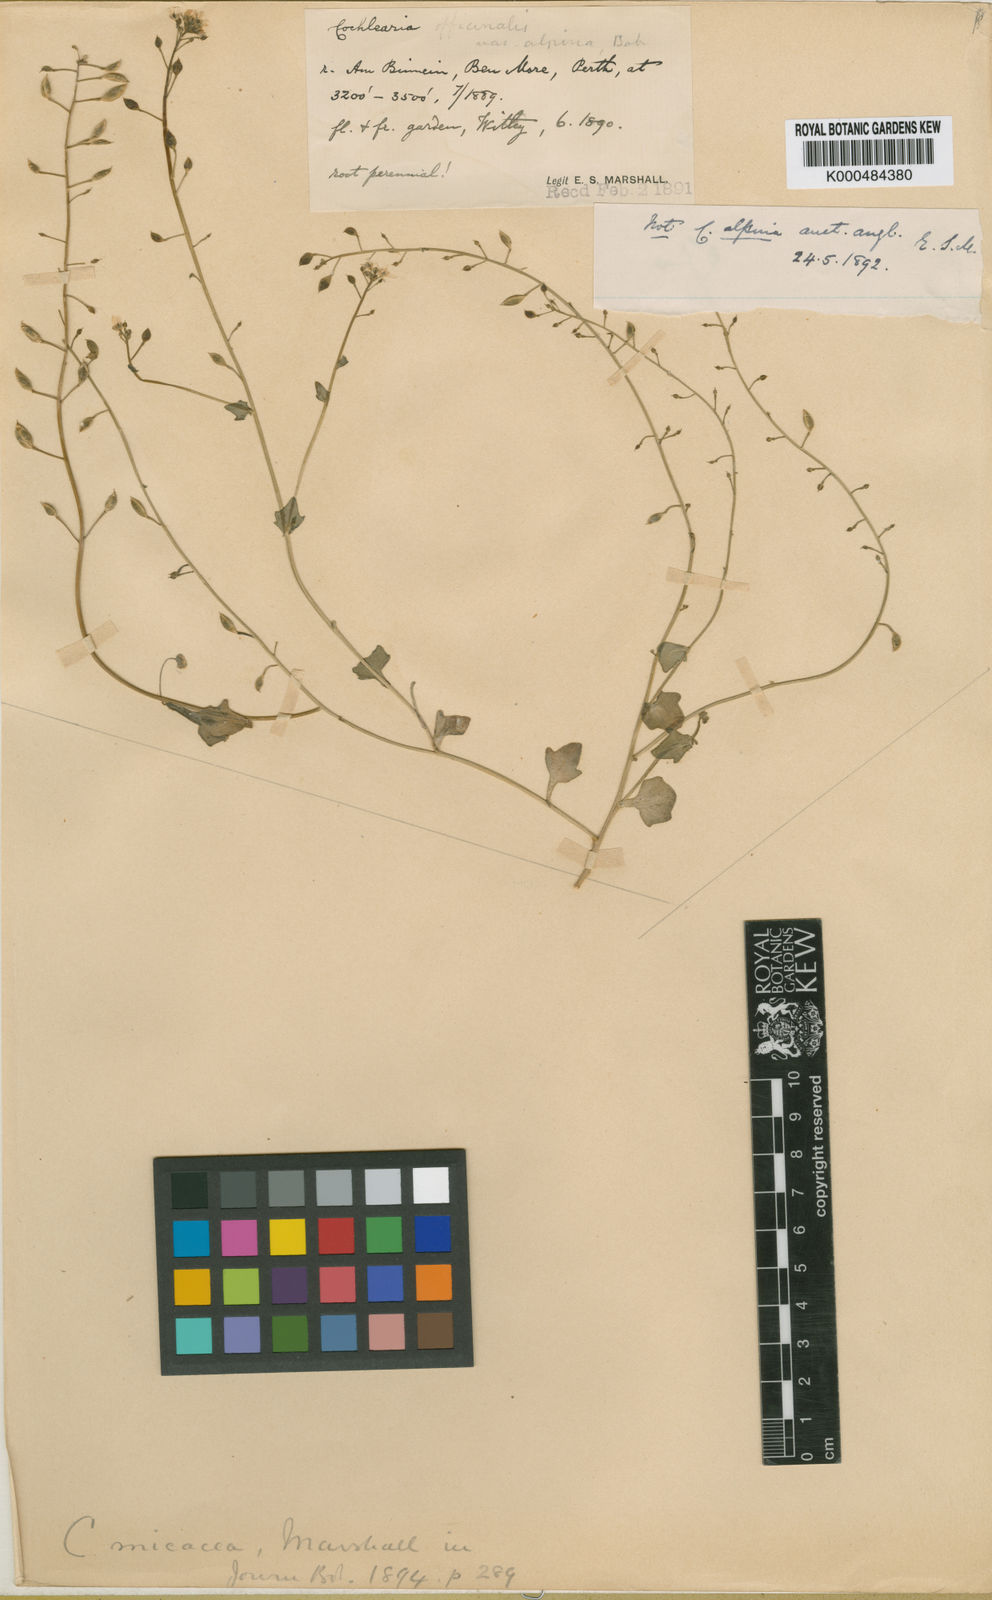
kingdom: Plantae
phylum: Tracheophyta
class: Magnoliopsida
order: Brassicales
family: Brassicaceae
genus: Cochlearia
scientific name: Cochlearia micacea
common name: Mountain scurvygrass
